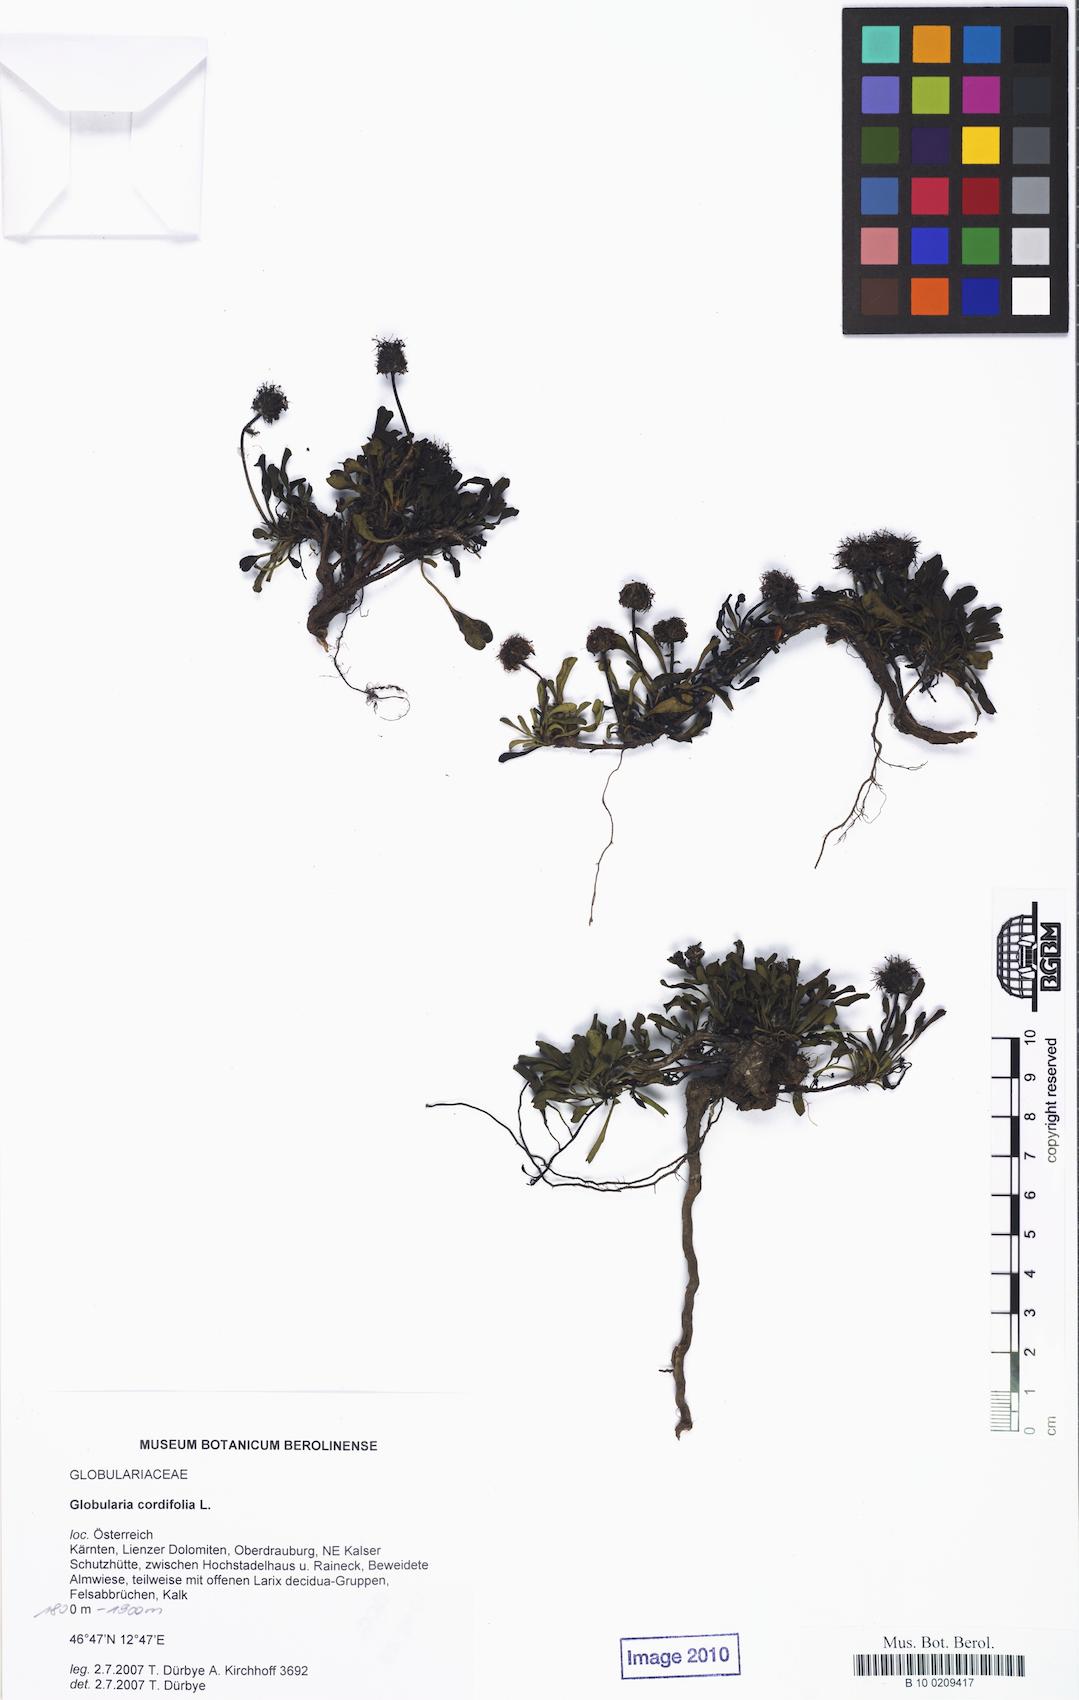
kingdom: Plantae
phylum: Tracheophyta
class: Magnoliopsida
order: Lamiales
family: Plantaginaceae
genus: Globularia
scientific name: Globularia cordifolia
